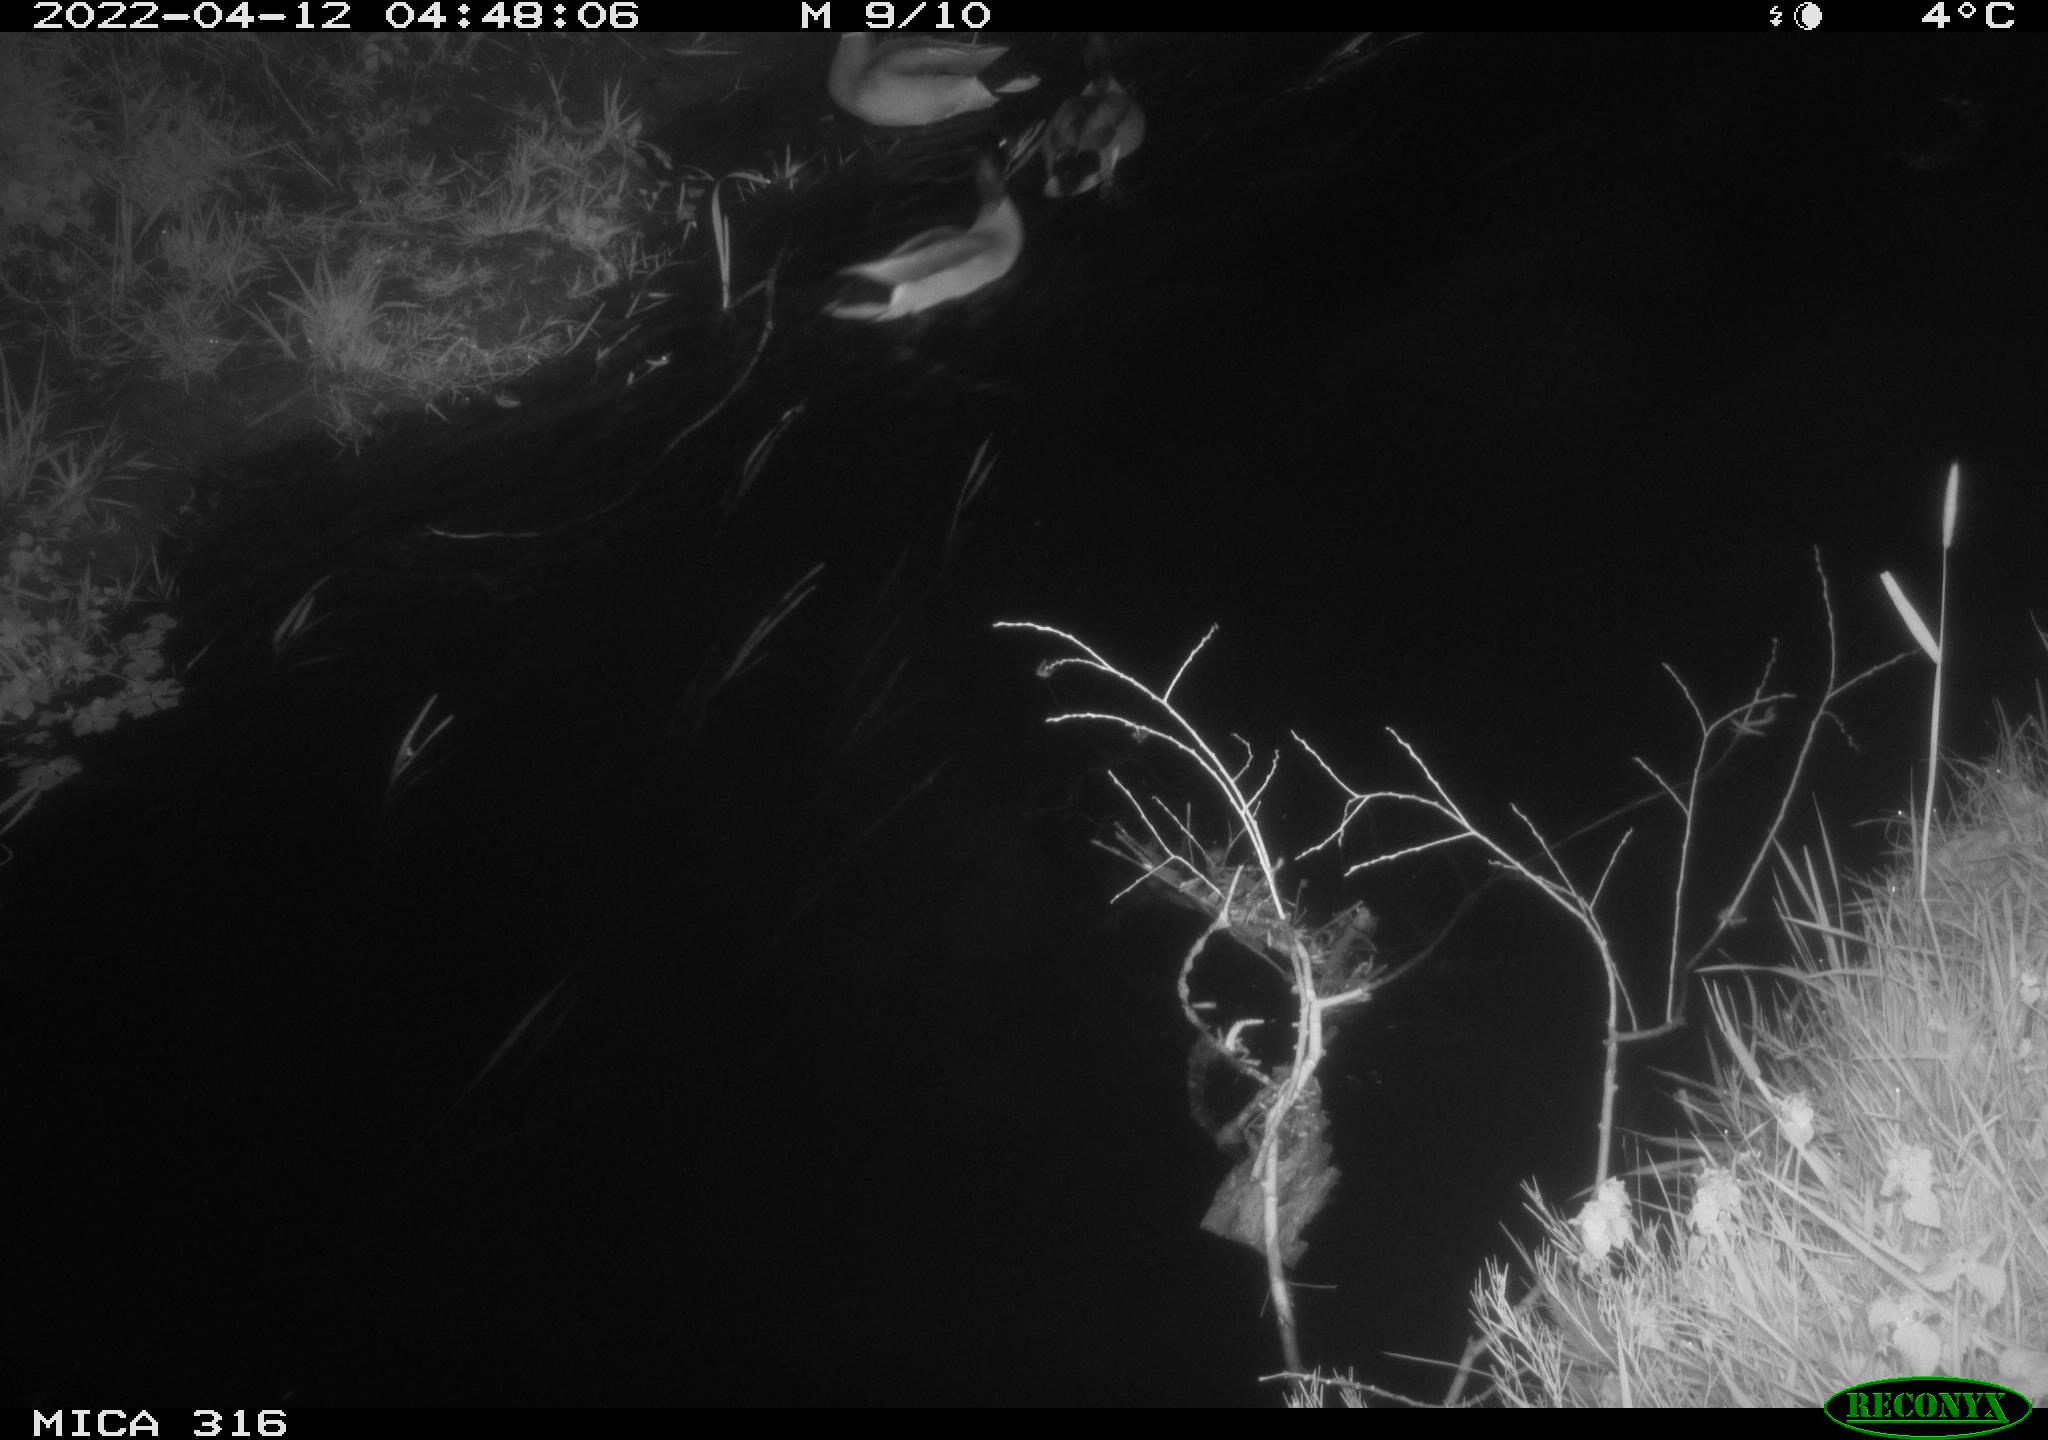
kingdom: Animalia
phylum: Chordata
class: Aves
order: Anseriformes
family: Anatidae
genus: Anas
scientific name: Anas platyrhynchos
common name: Mallard
